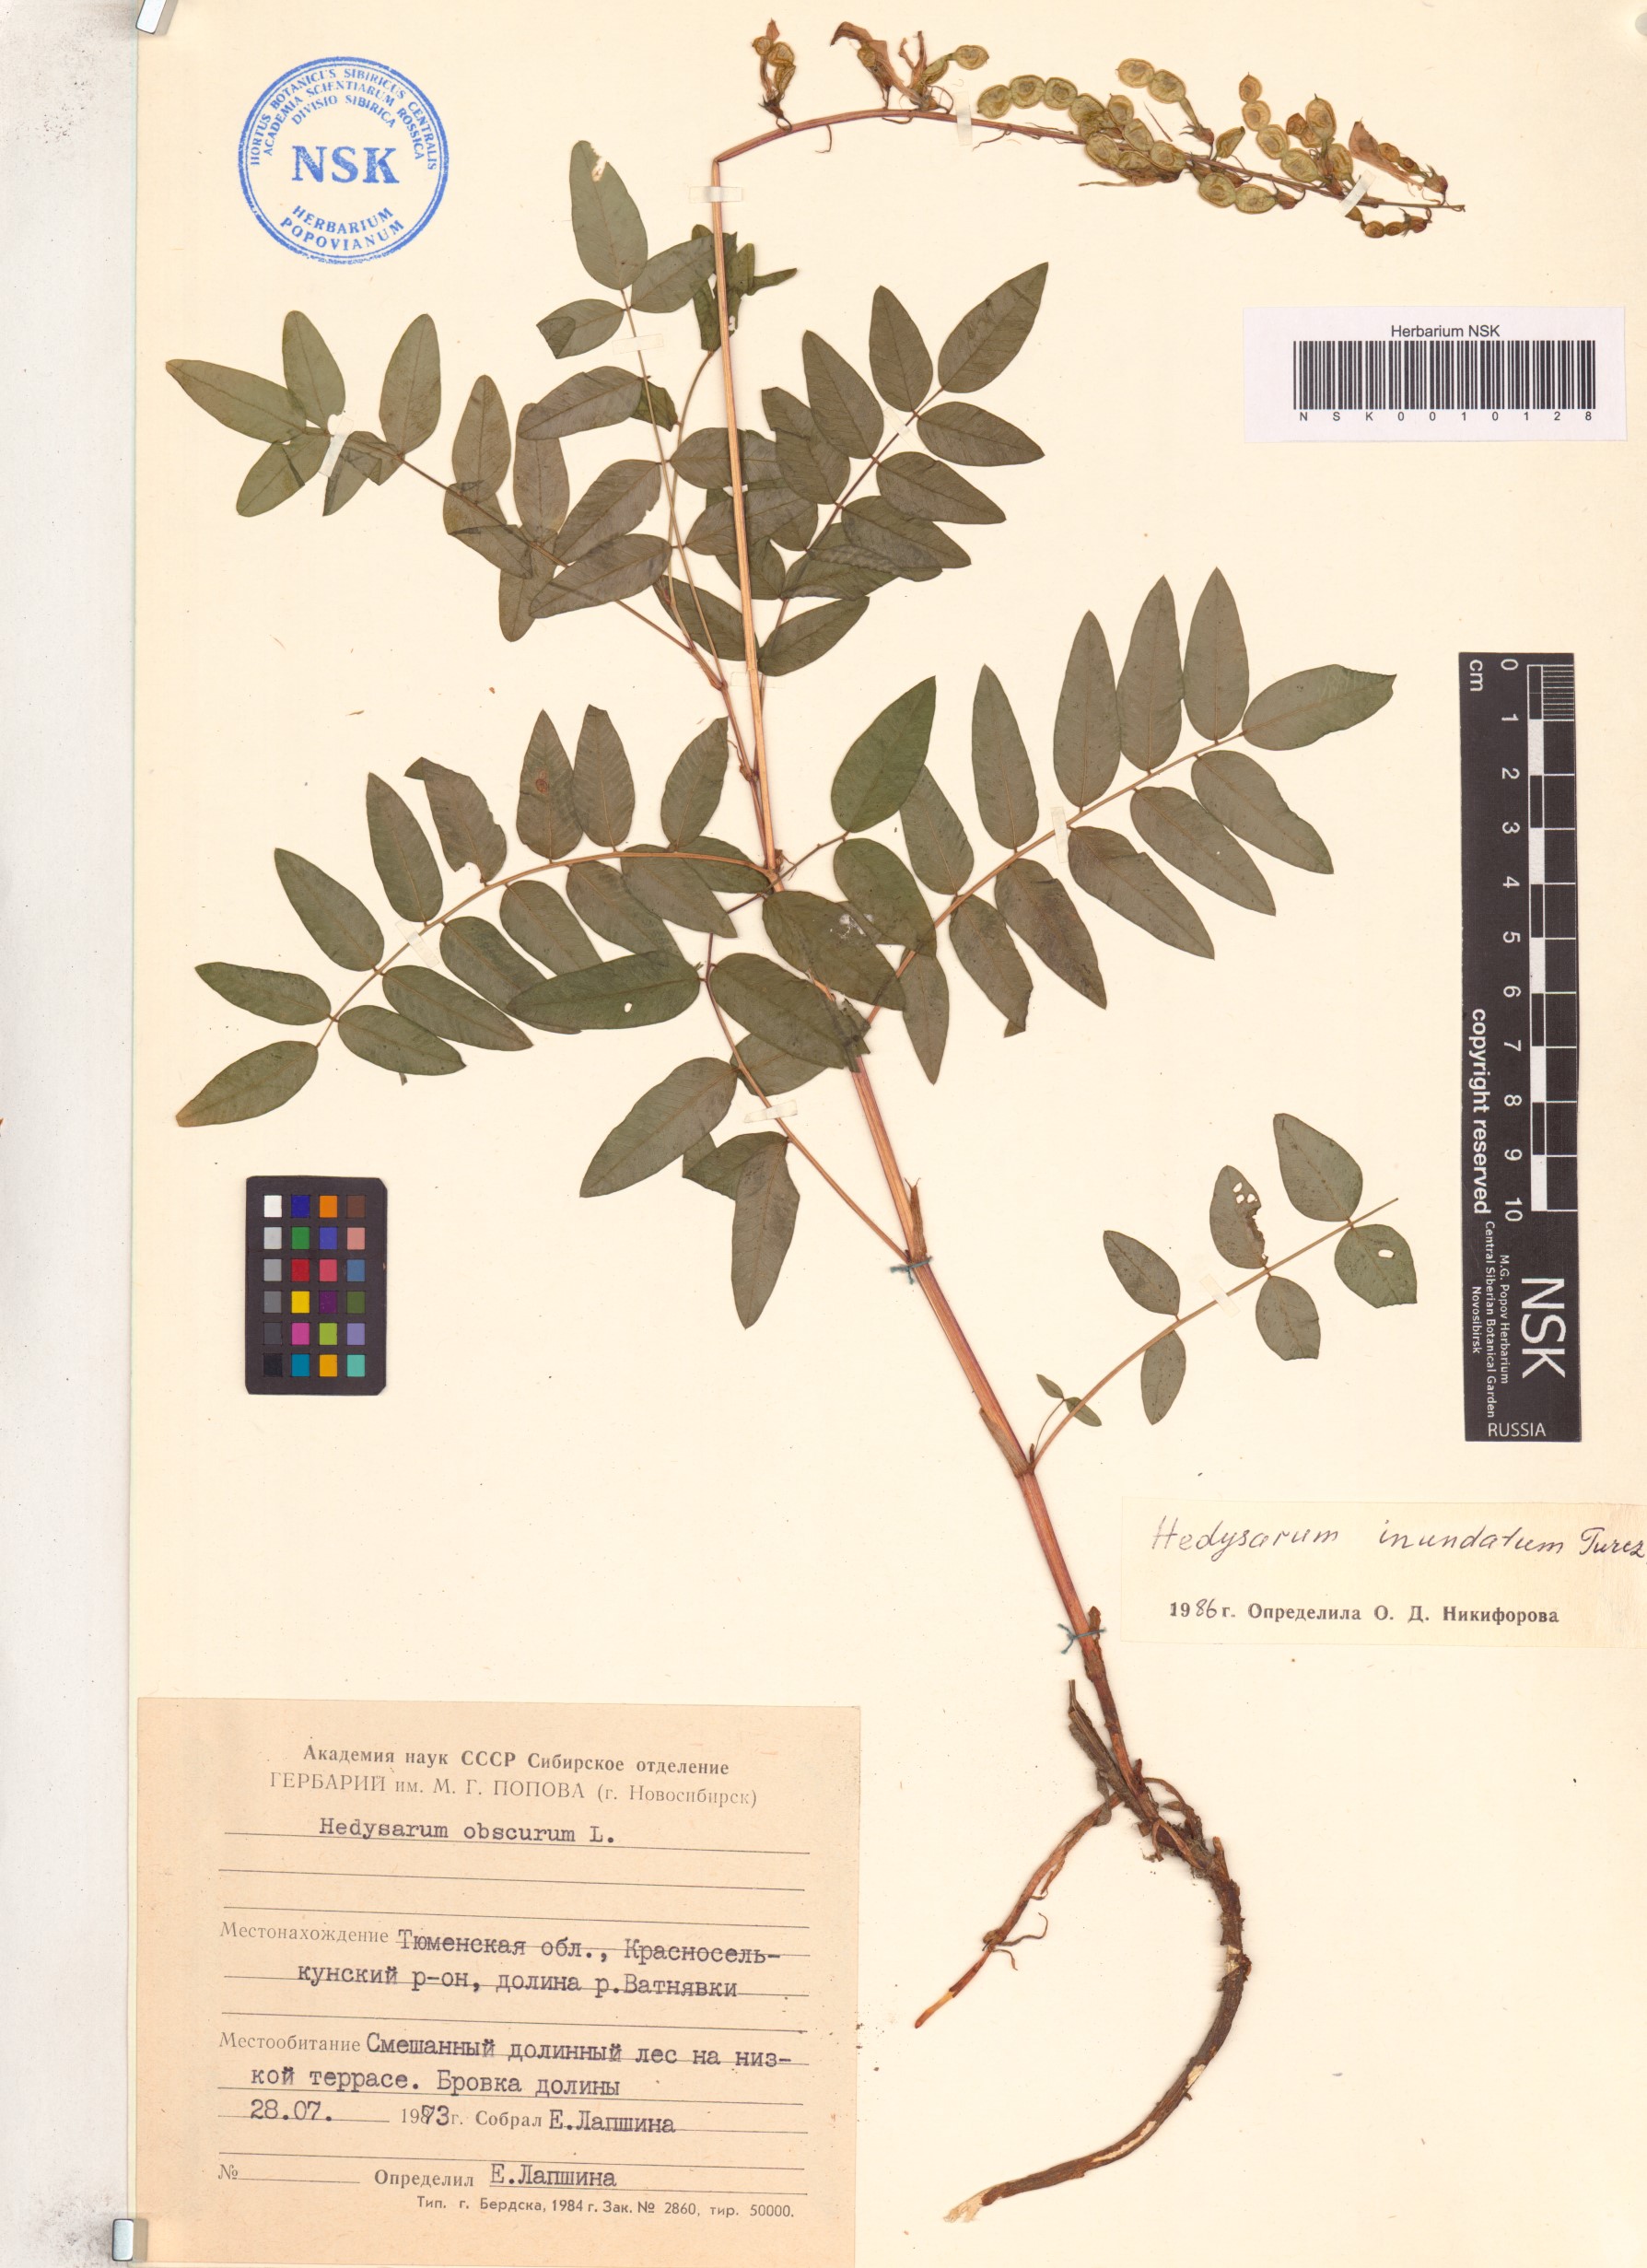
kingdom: Plantae
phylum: Tracheophyta
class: Magnoliopsida
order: Fabales
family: Fabaceae
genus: Hedysarum
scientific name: Hedysarum inundatum
